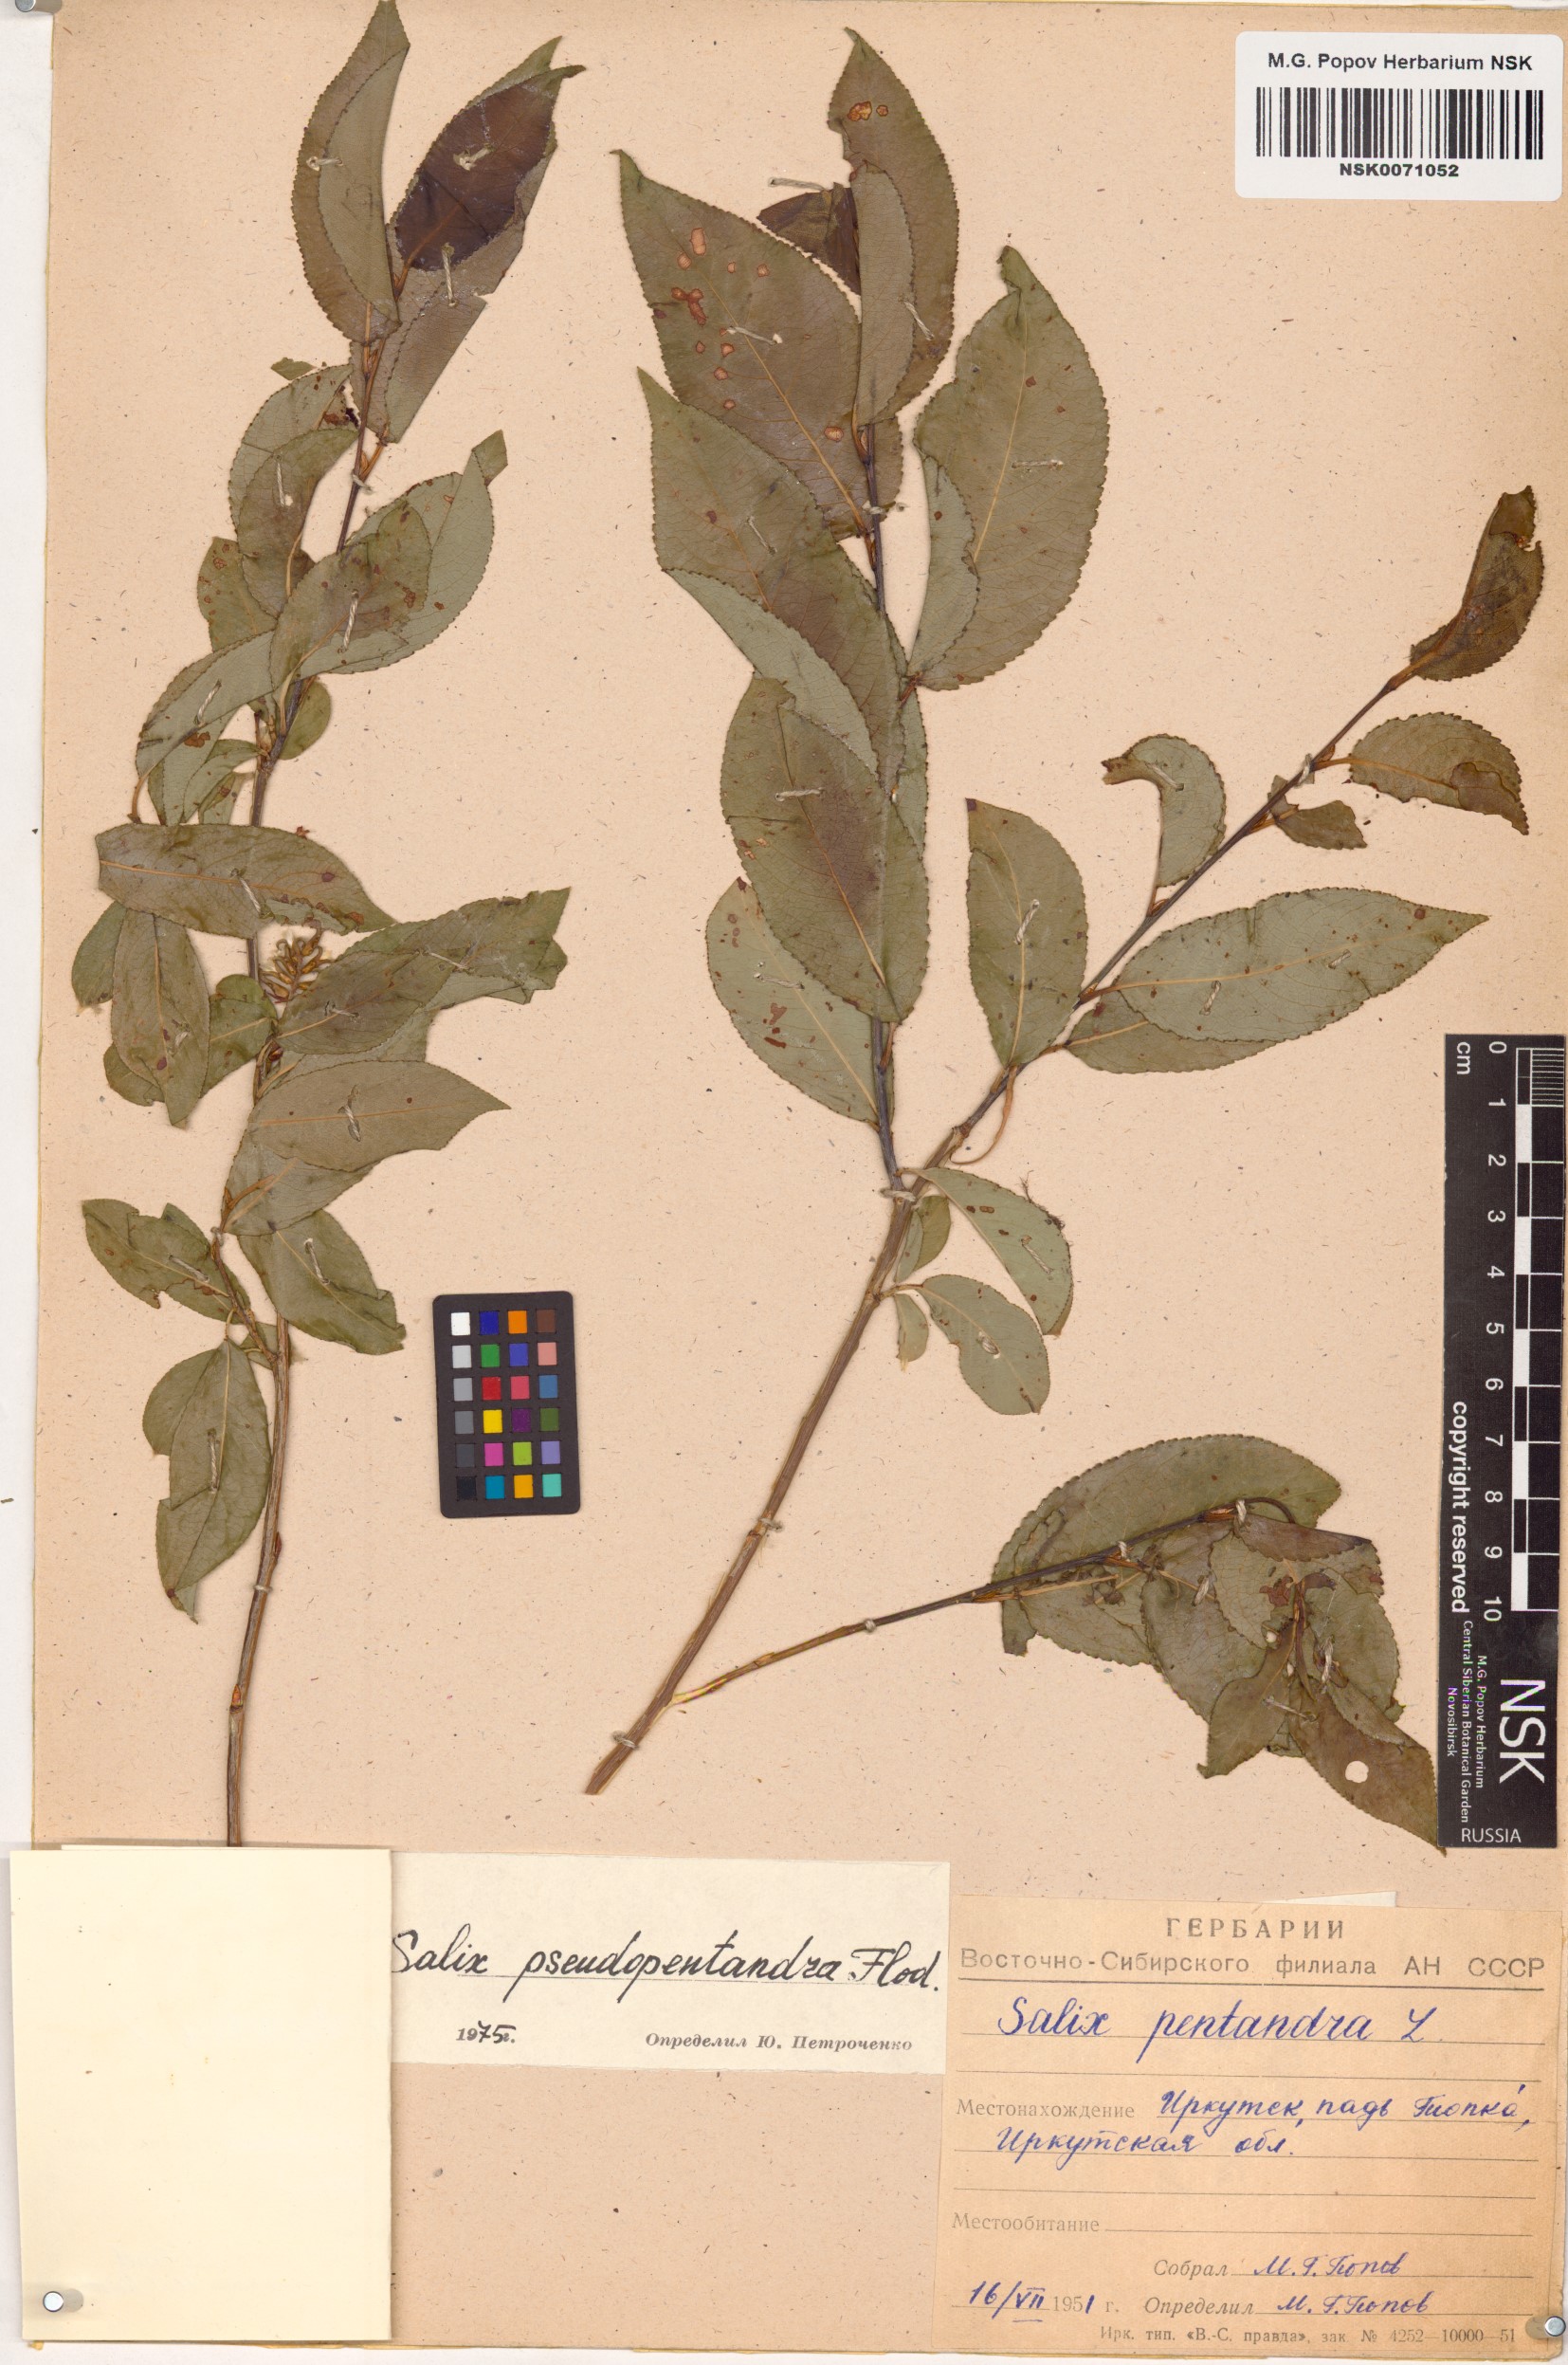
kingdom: Plantae
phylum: Tracheophyta
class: Magnoliopsida
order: Malpighiales
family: Salicaceae
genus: Salix
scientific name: Salix pseudopentandra
